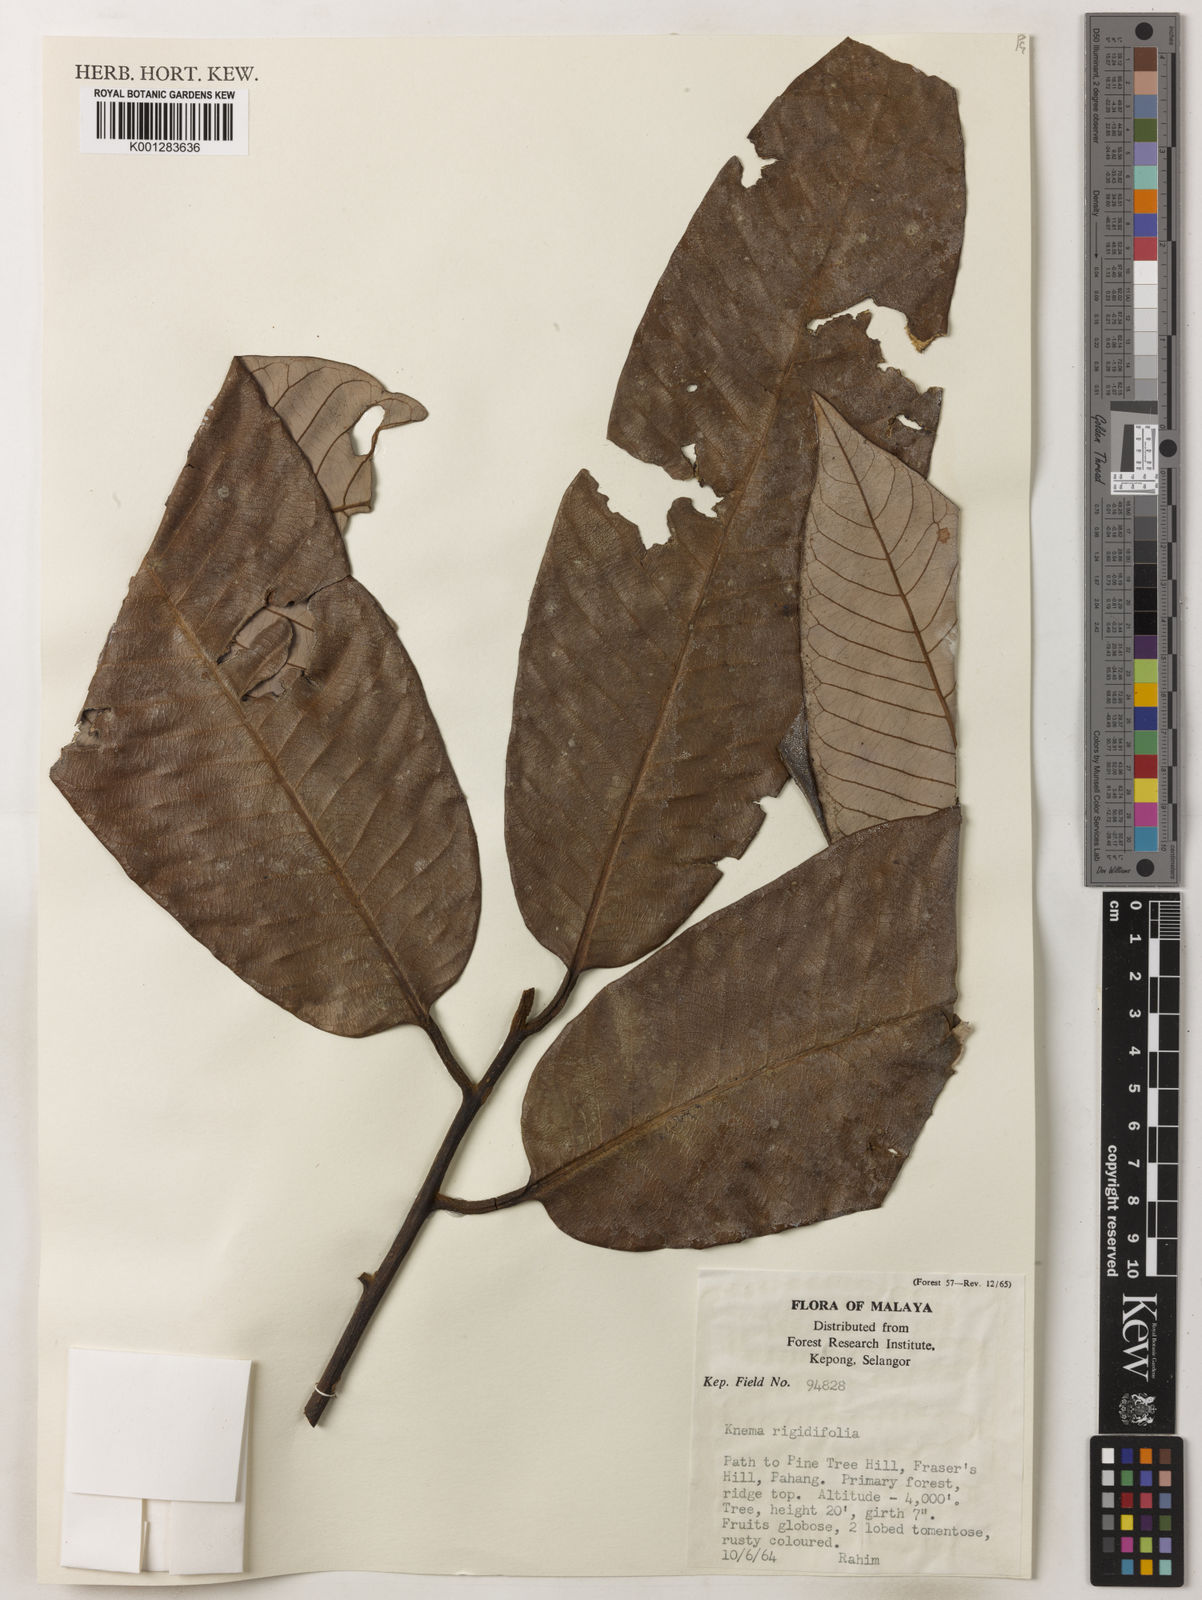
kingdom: Plantae
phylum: Tracheophyta
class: Magnoliopsida
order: Magnoliales
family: Myristicaceae
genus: Knema
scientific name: Knema rigidifolia
